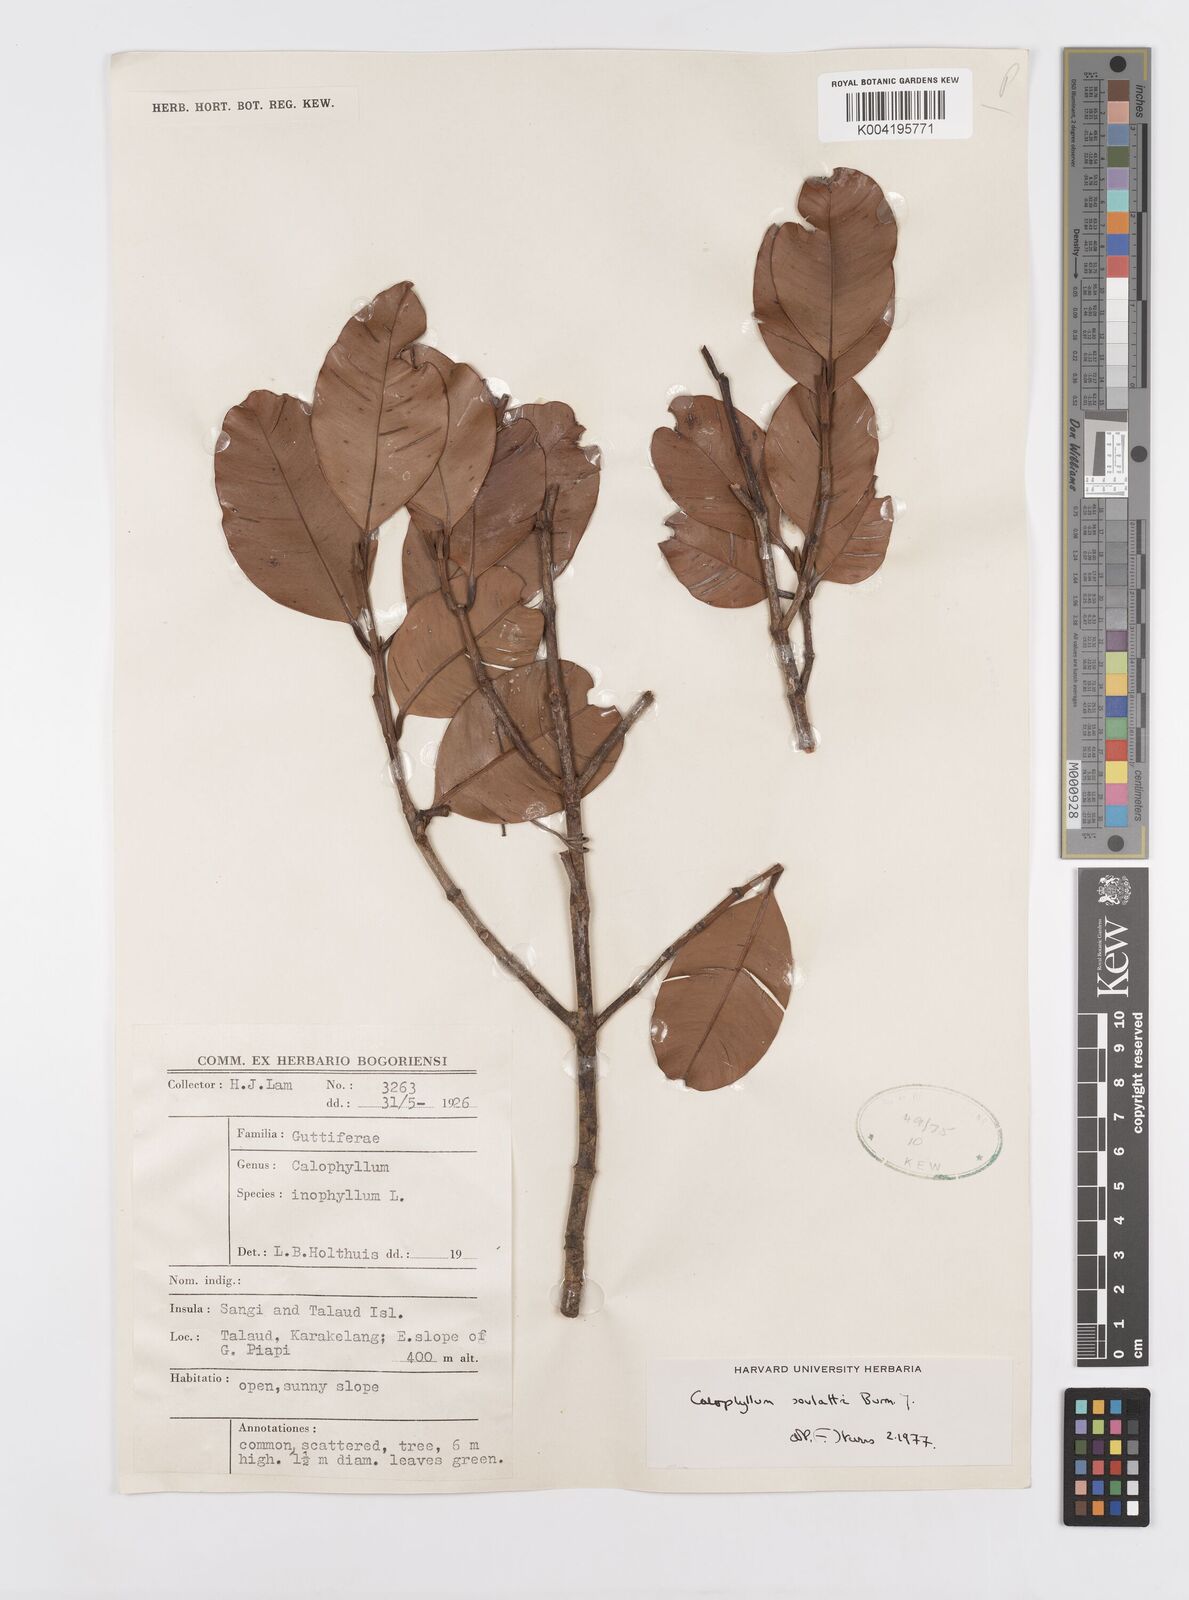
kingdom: Plantae
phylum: Tracheophyta
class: Magnoliopsida
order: Malpighiales
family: Calophyllaceae
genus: Calophyllum
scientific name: Calophyllum soulattri
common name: Bitangoor boonot
